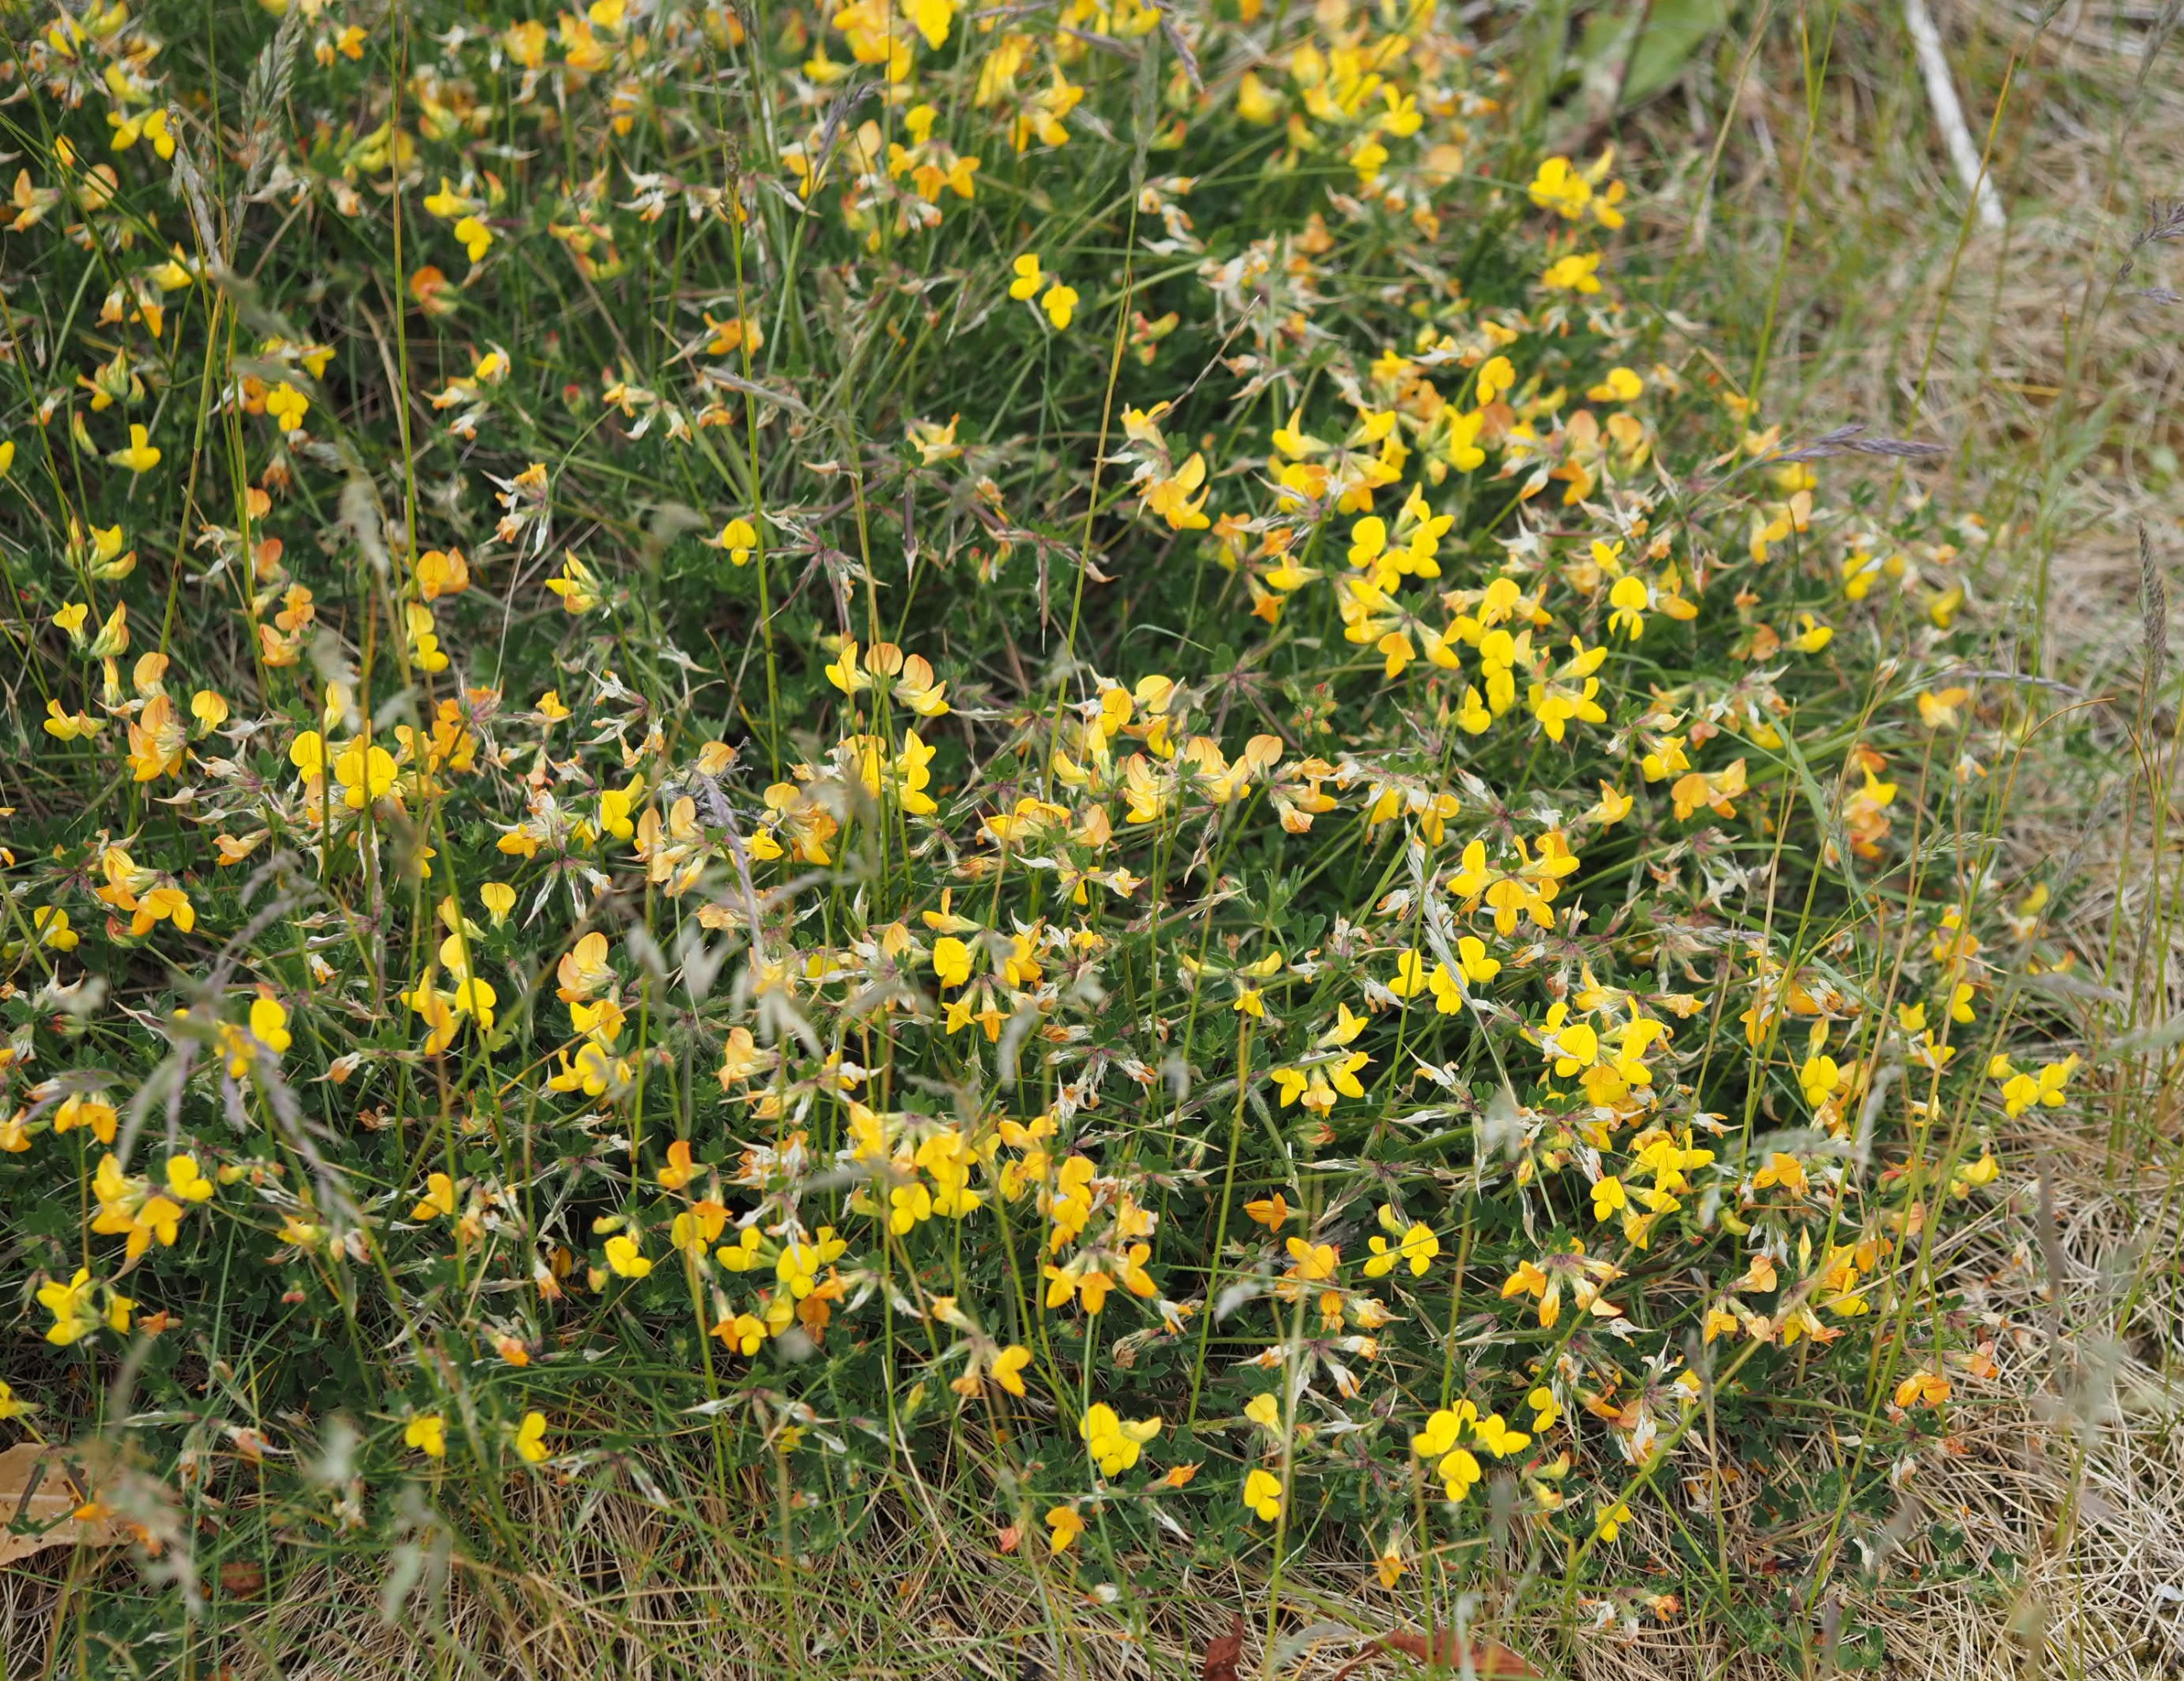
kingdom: Plantae
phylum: Tracheophyta
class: Magnoliopsida
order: Fabales
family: Fabaceae
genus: Lotus
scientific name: Lotus corniculatus
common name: Almindelig kællingetand
